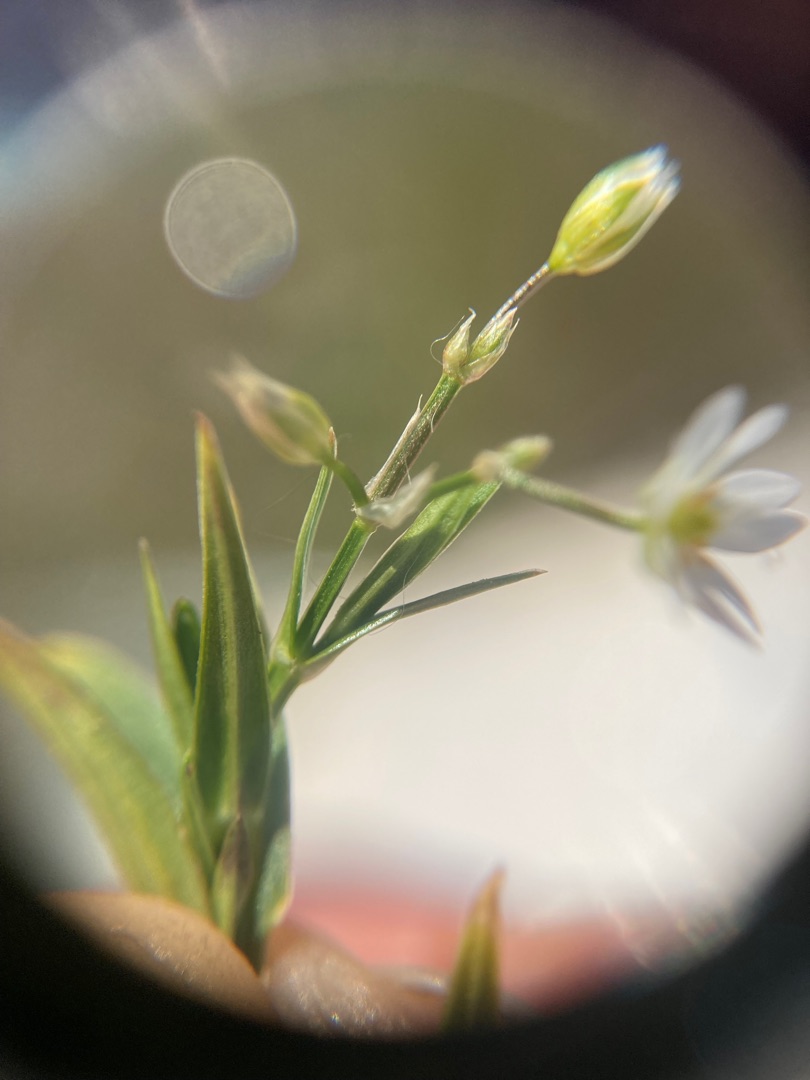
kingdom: Plantae
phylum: Tracheophyta
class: Magnoliopsida
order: Caryophyllales
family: Caryophyllaceae
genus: Stellaria
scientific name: Stellaria graminea
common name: Græsbladet fladstjerne
